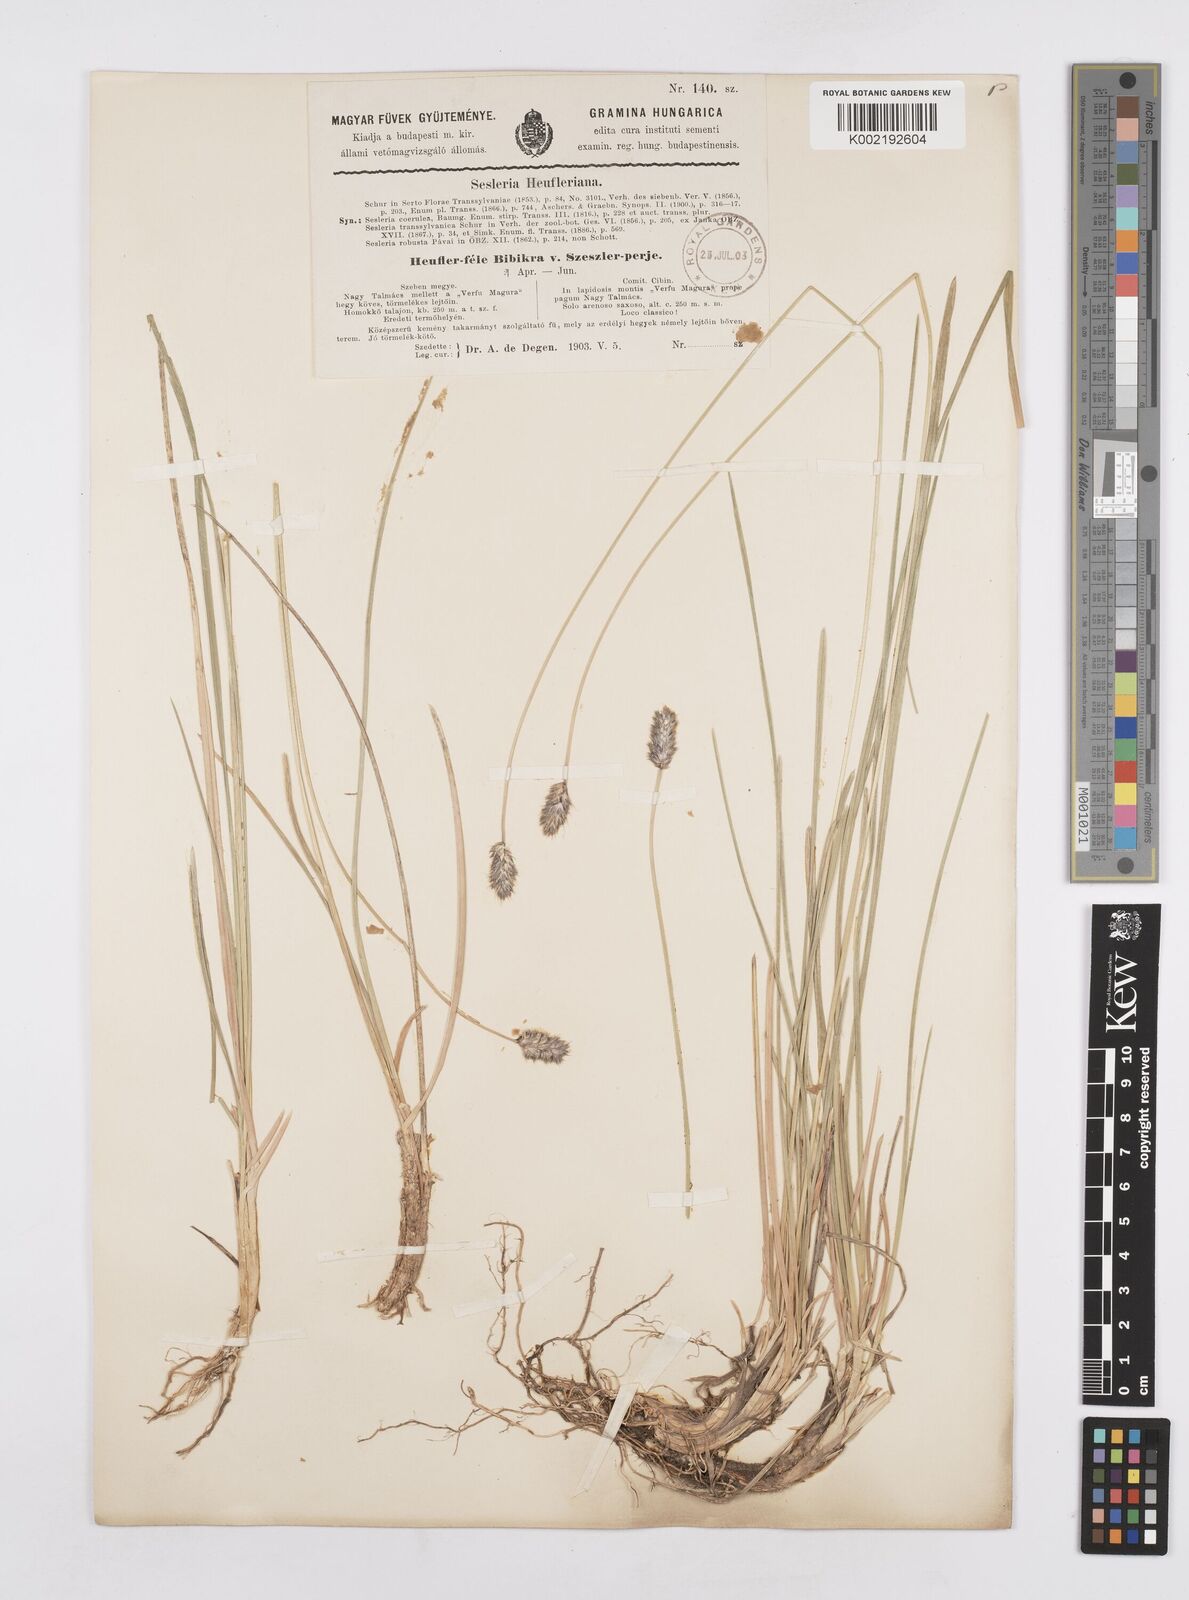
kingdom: Plantae
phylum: Tracheophyta
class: Liliopsida
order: Poales
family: Poaceae
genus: Sesleria
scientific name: Sesleria heufleriana
